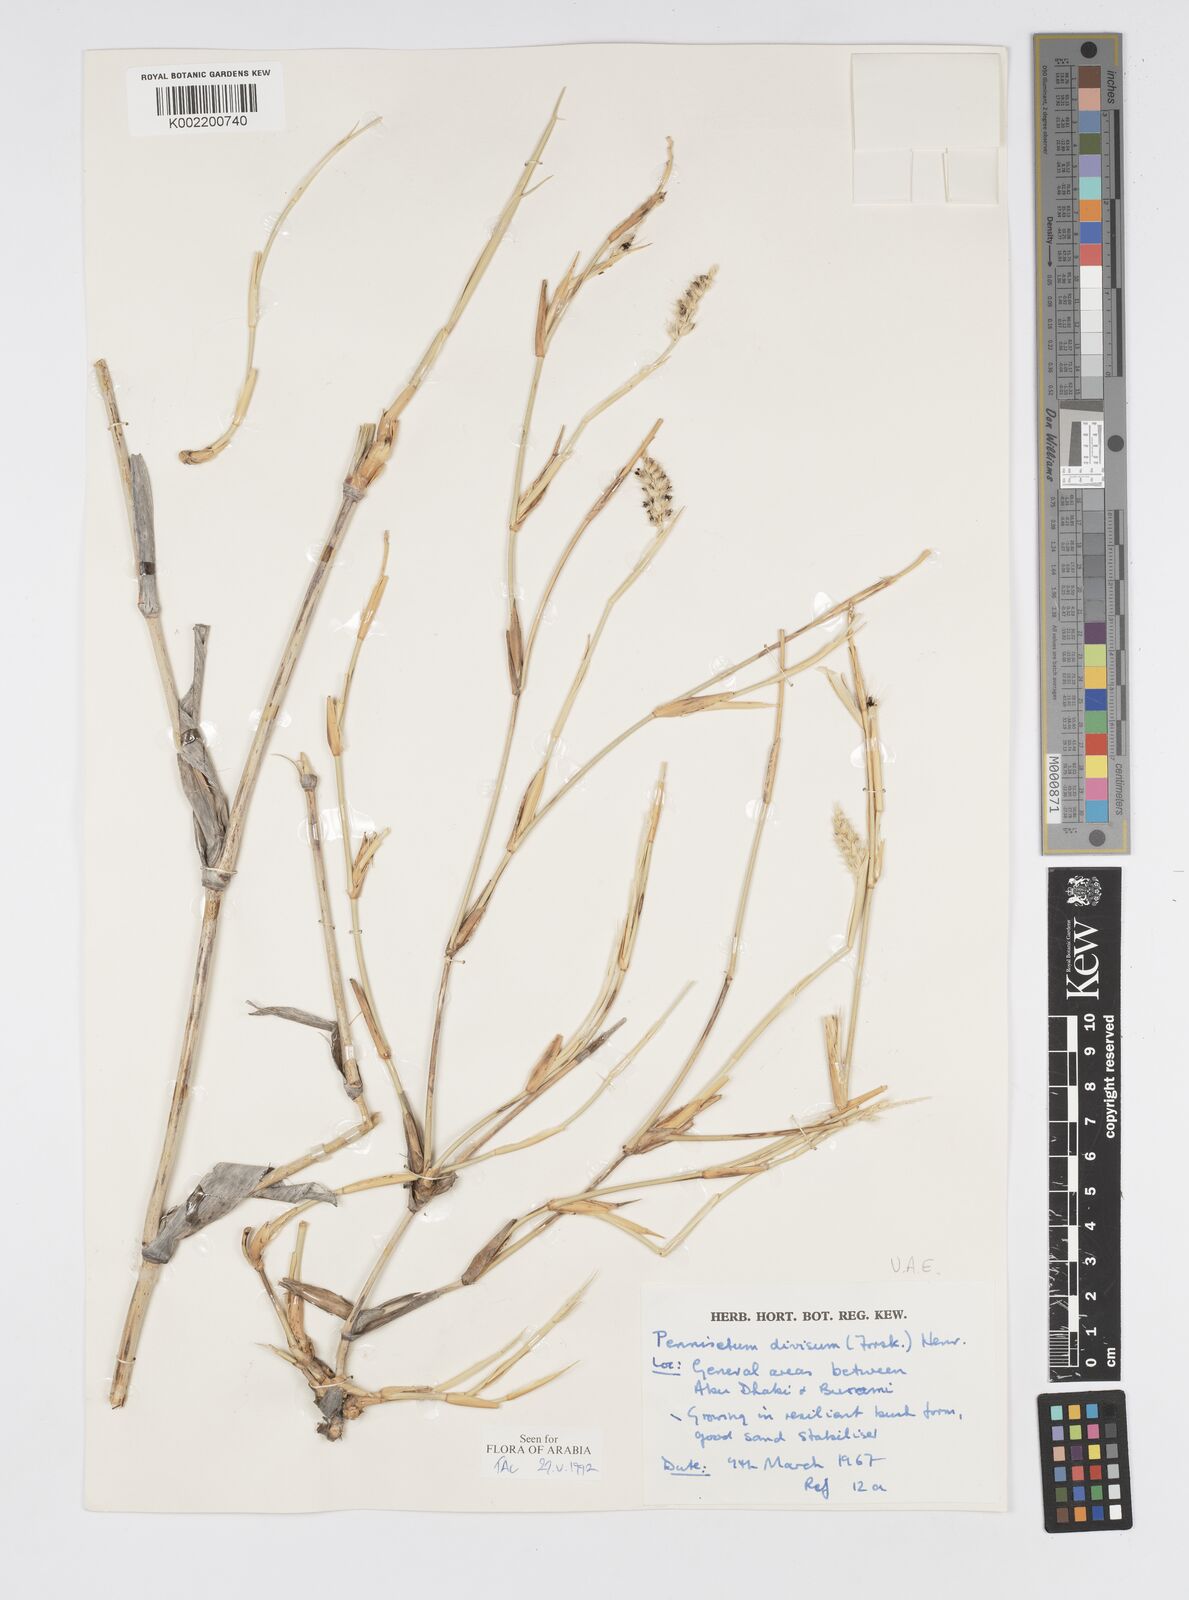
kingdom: Plantae
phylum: Tracheophyta
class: Liliopsida
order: Poales
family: Poaceae
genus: Cenchrus
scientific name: Cenchrus divisus
